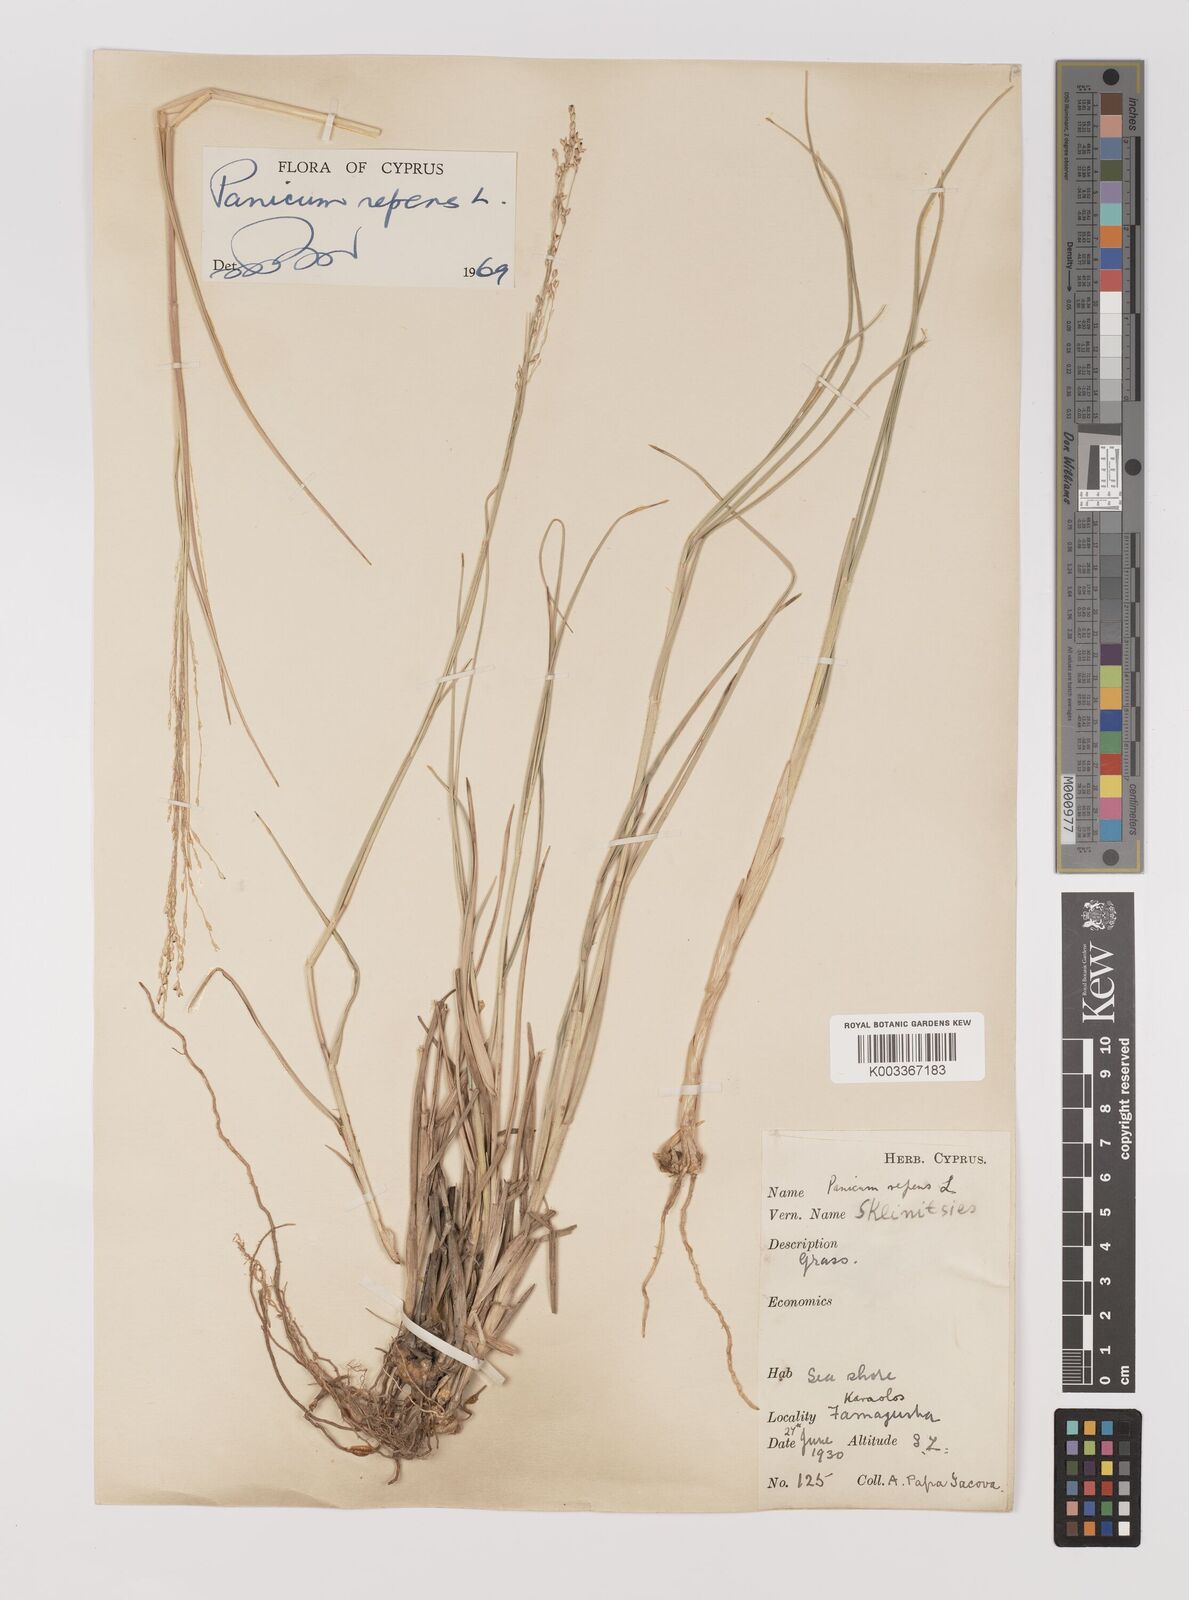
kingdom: Plantae
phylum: Tracheophyta
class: Liliopsida
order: Poales
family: Poaceae
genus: Panicum
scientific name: Panicum repens
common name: Torpedo grass
